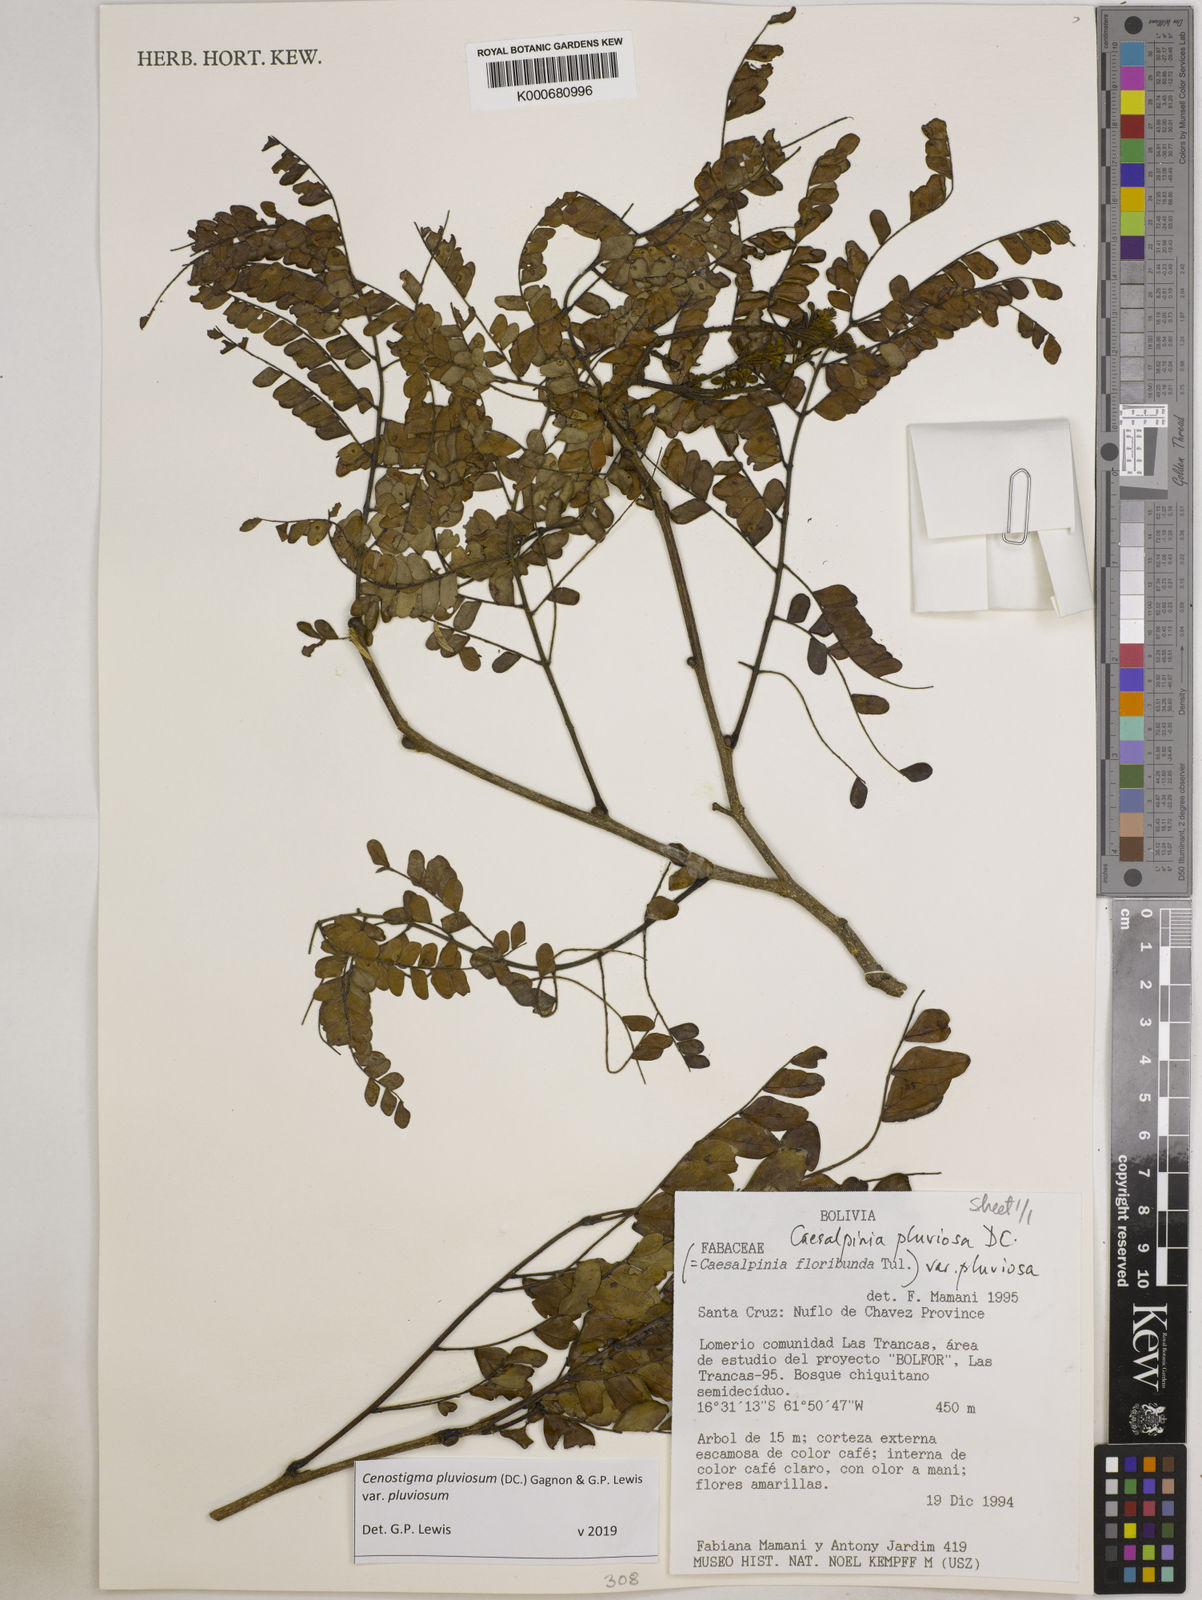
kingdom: Plantae
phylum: Tracheophyta
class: Magnoliopsida
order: Fabales
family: Fabaceae
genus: Cenostigma
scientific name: Cenostigma pluviosum
